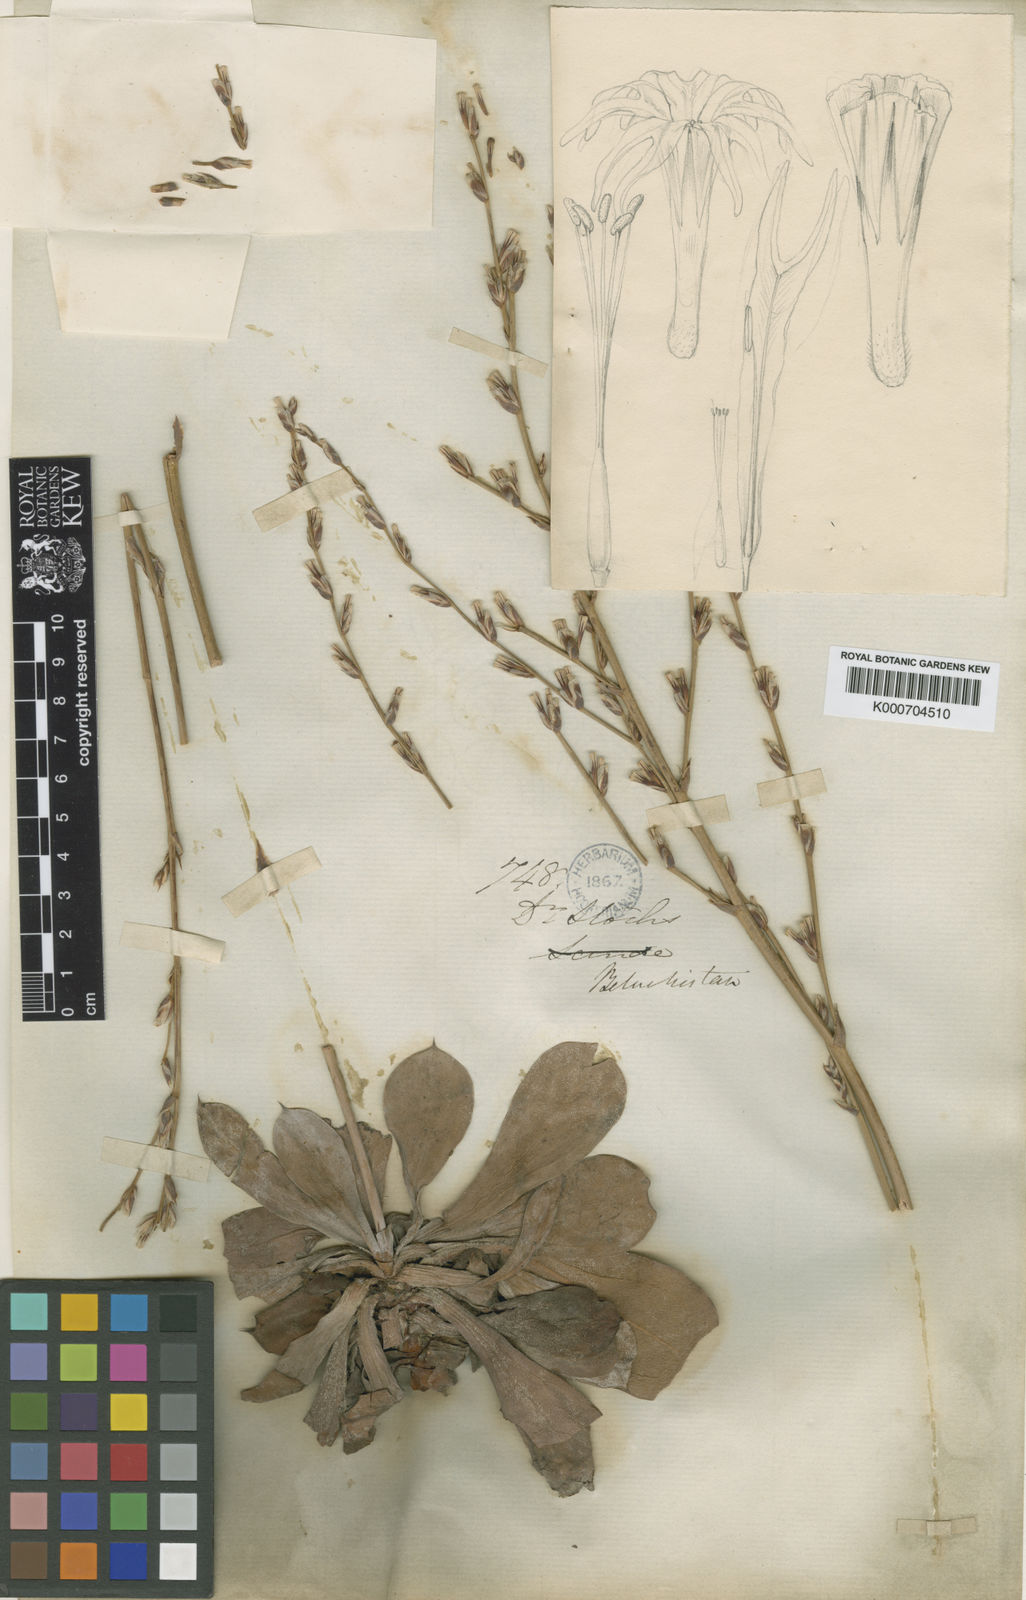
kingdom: Plantae
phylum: Tracheophyta
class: Magnoliopsida
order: Caryophyllales
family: Plumbaginaceae
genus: Dictyolimon
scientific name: Dictyolimon macrorrhabdos
